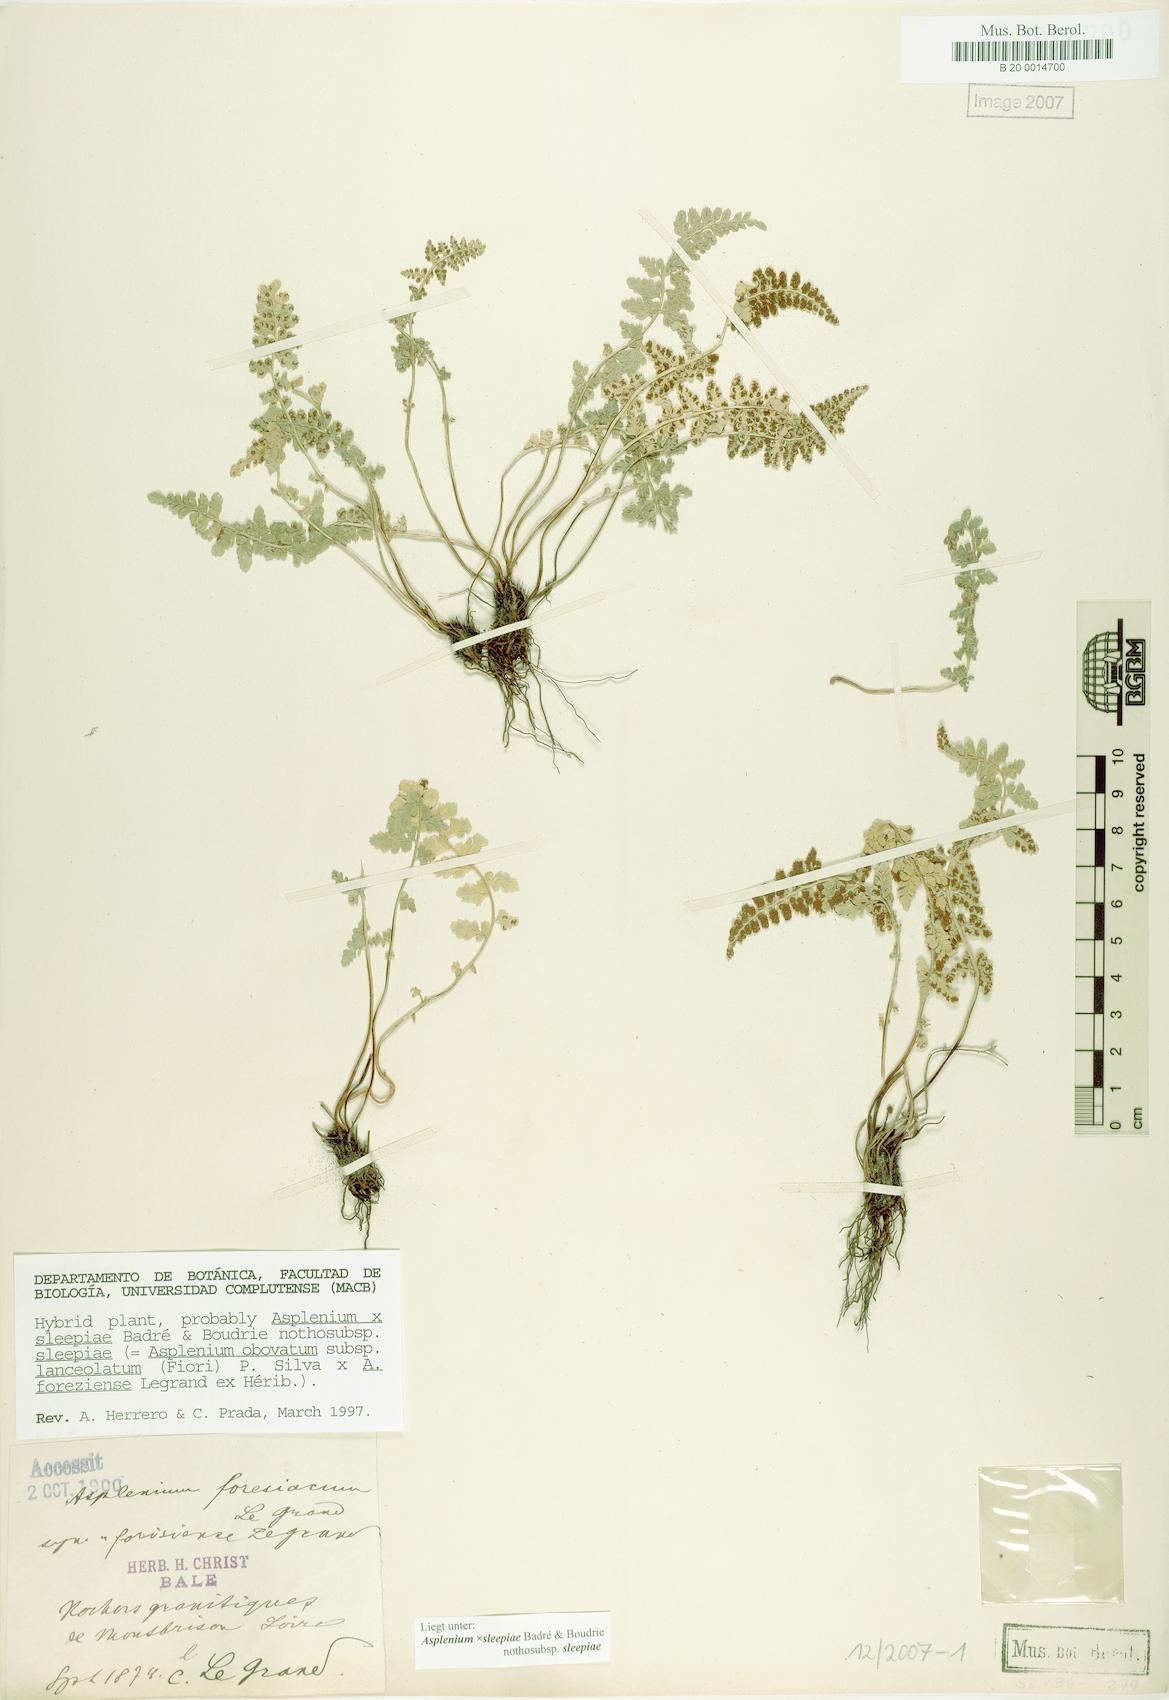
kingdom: Plantae
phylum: Tracheophyta
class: Polypodiopsida
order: Polypodiales
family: Aspleniaceae
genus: Asplenium
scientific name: Asplenium sleepiae
